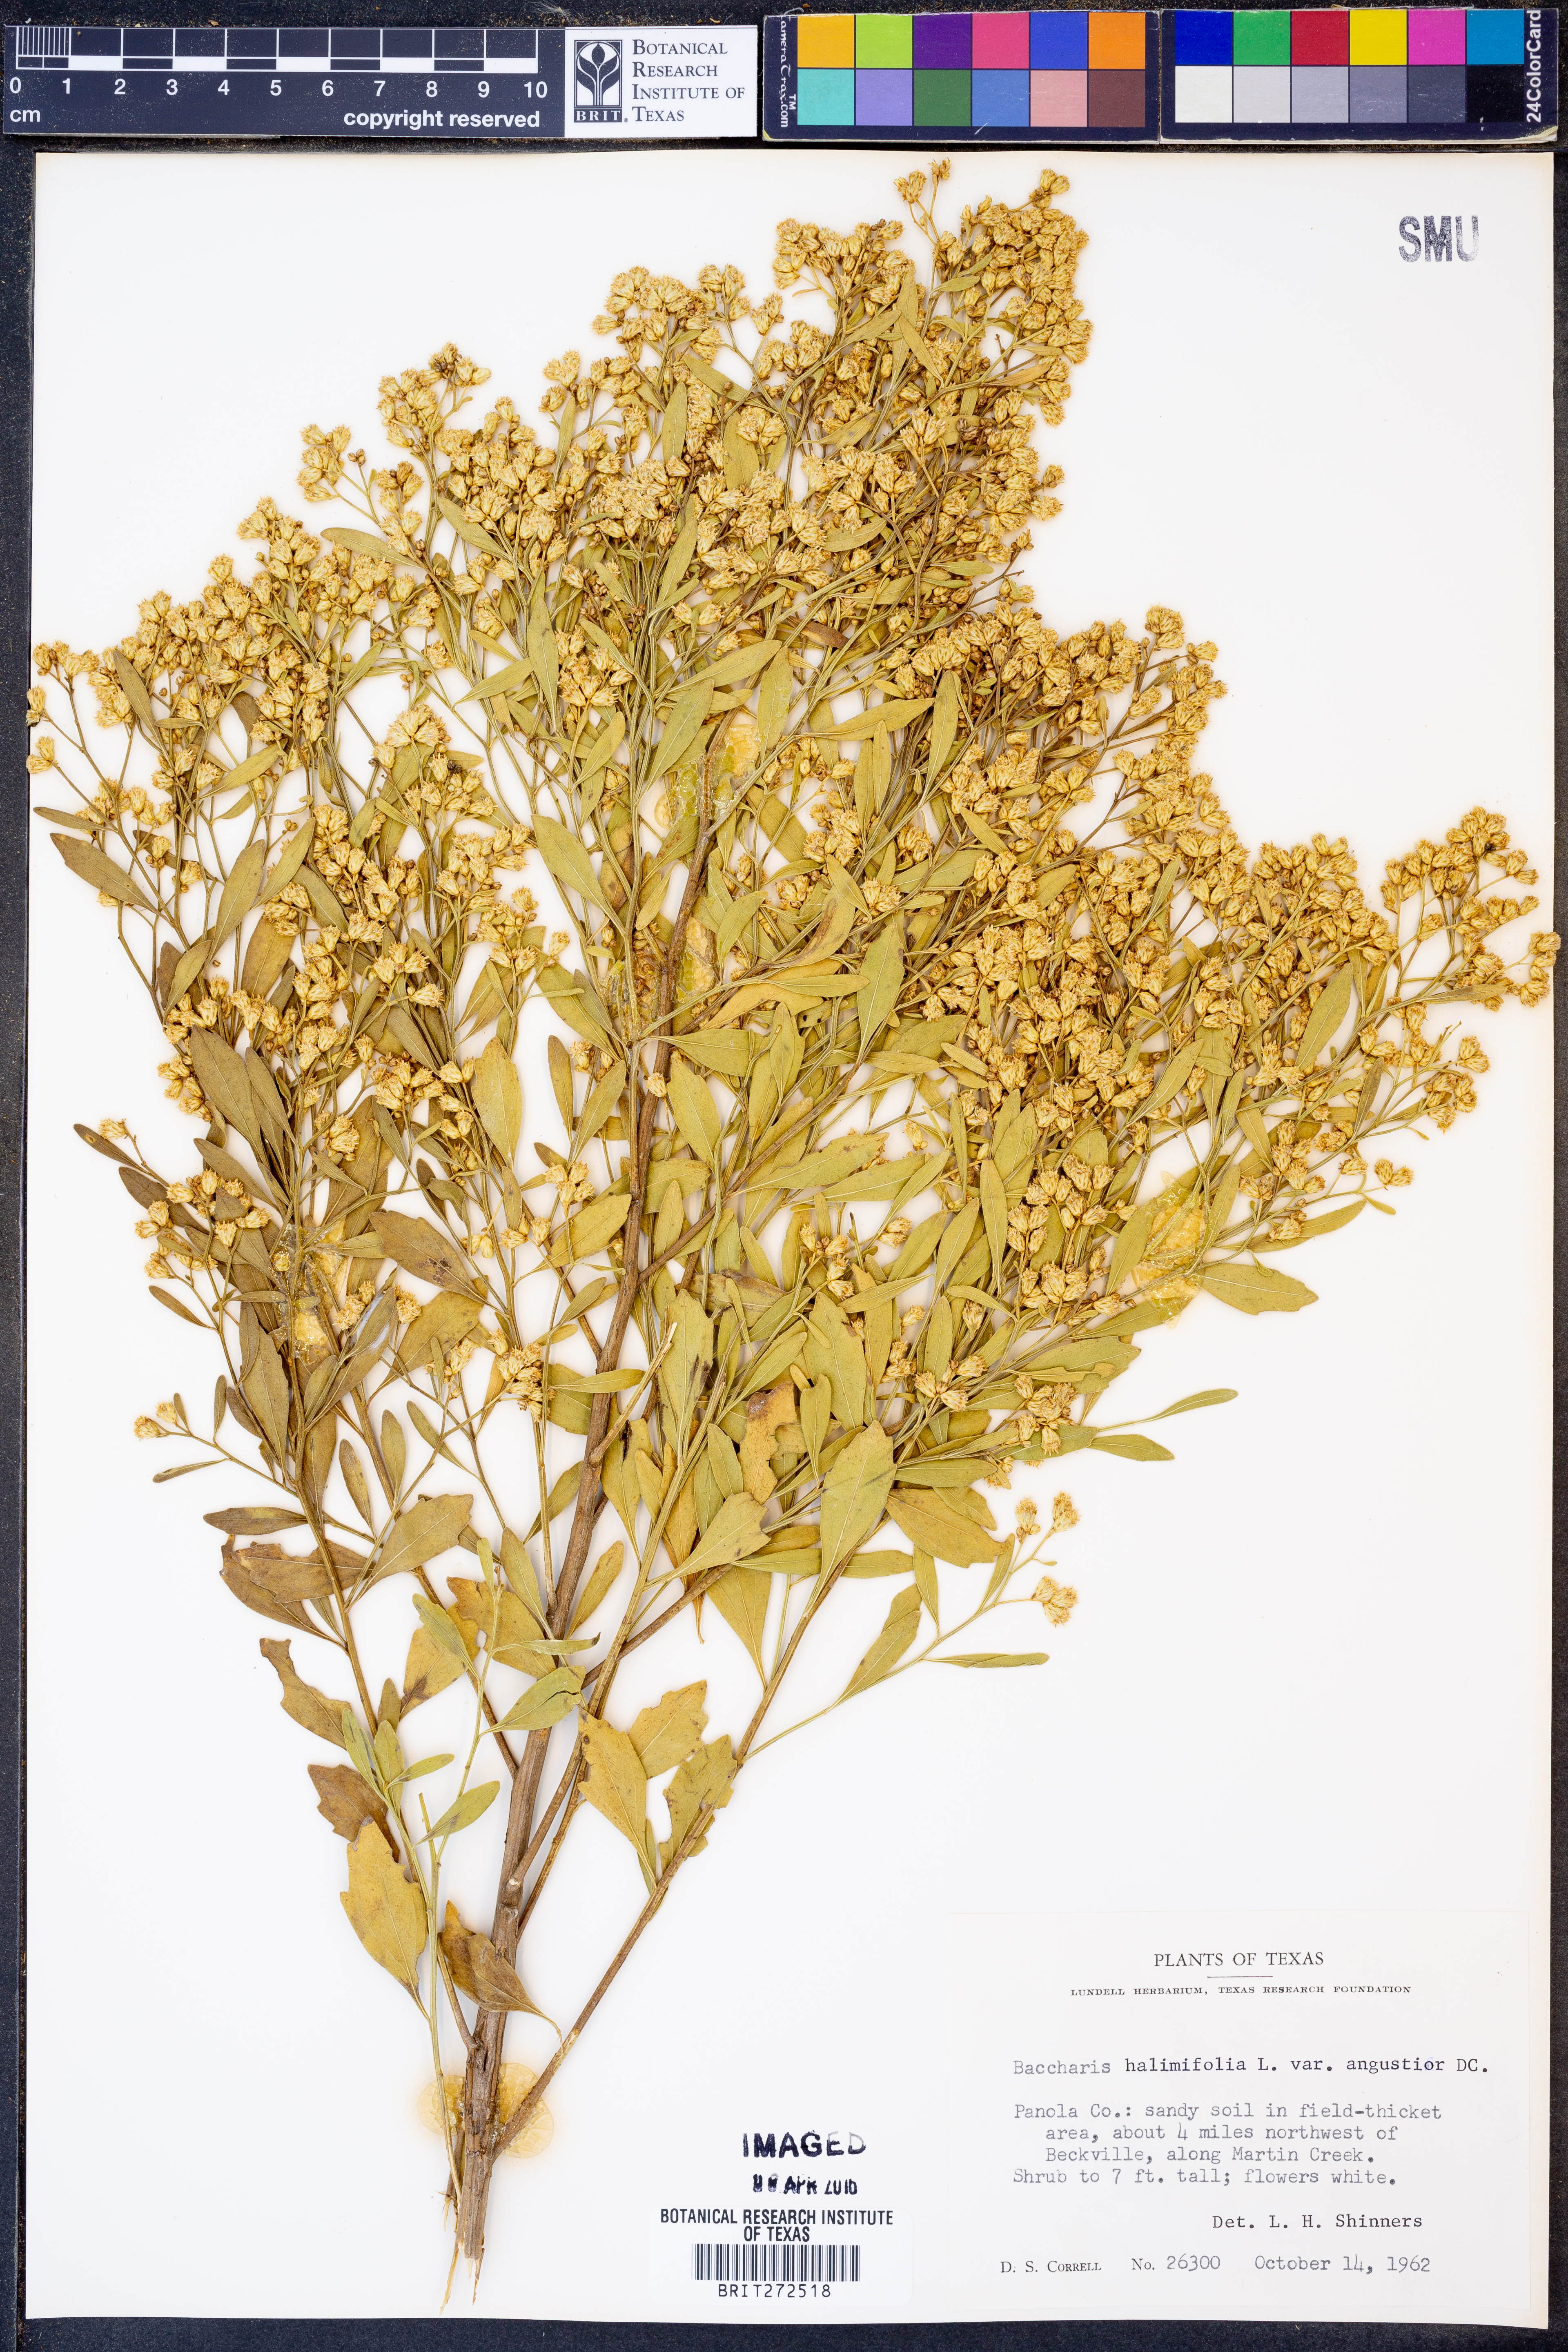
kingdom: Plantae
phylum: Tracheophyta
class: Magnoliopsida
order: Asterales
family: Asteraceae
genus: Baccharis
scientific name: Baccharis halimifolia
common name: Eastern baccharis
